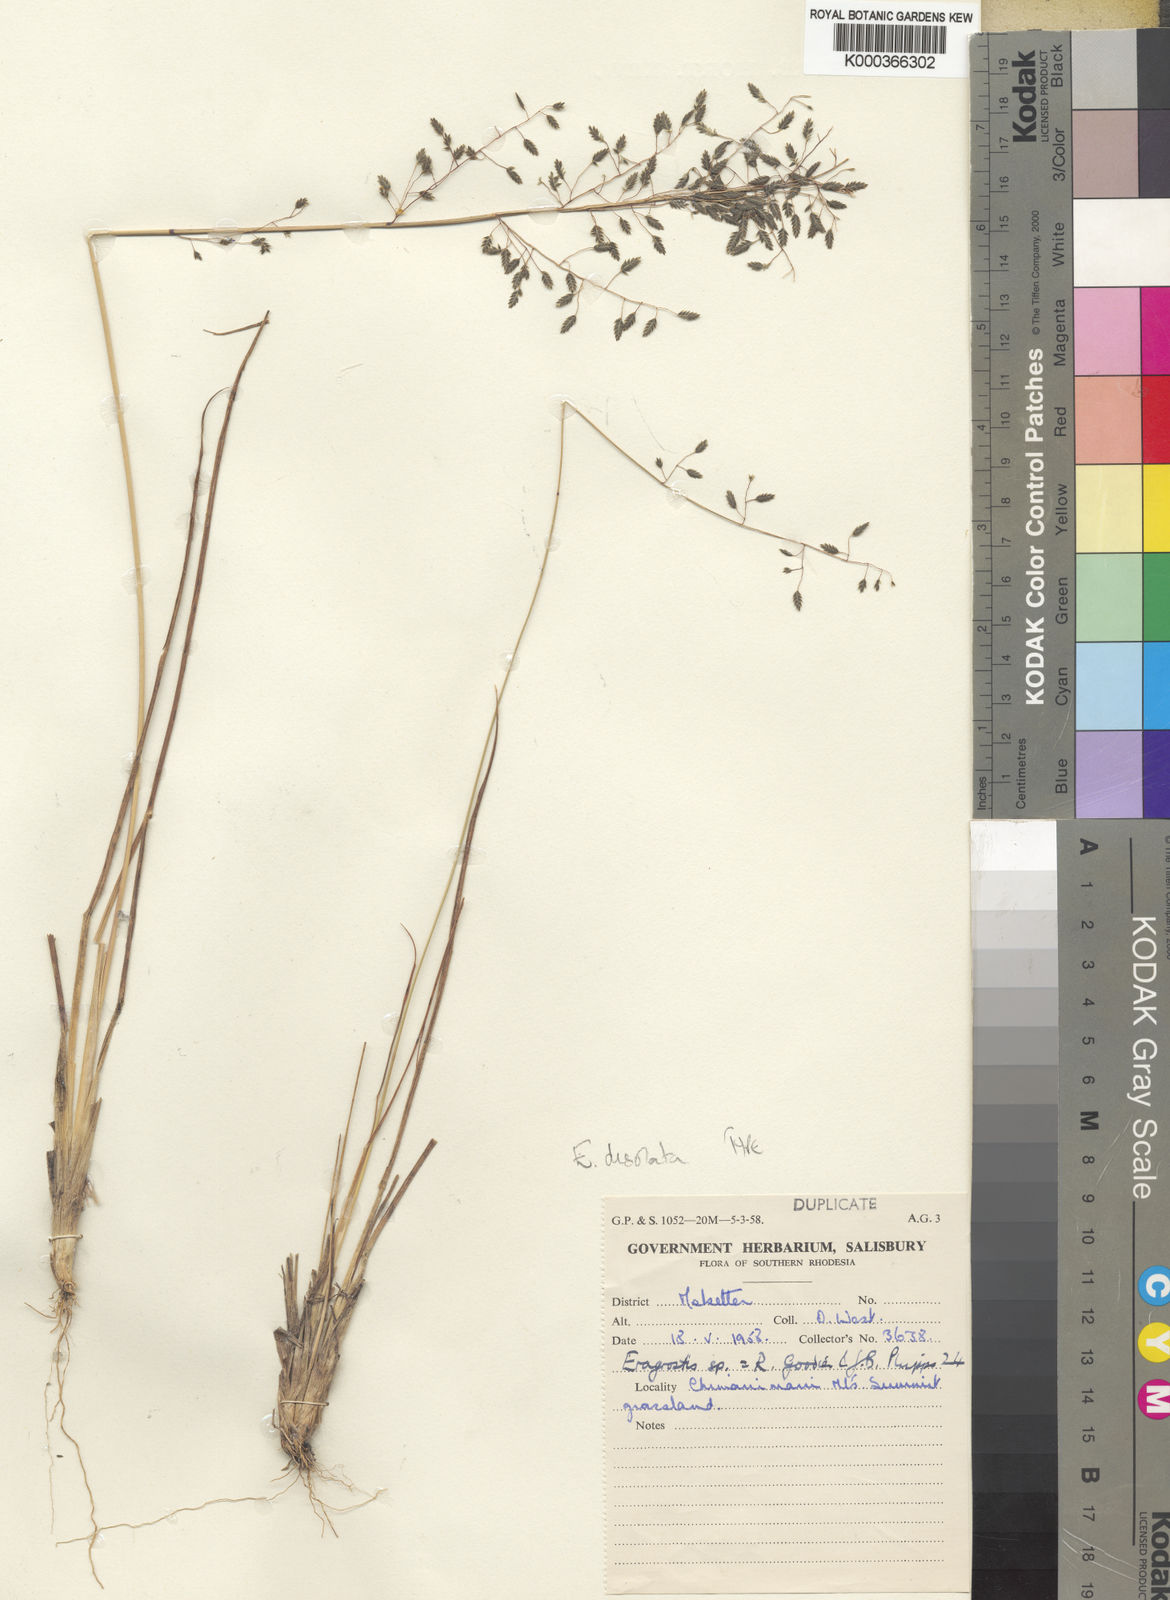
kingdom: Plantae
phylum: Tracheophyta
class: Liliopsida
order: Poales
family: Poaceae
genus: Eragrostis
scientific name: Eragrostis desolata
